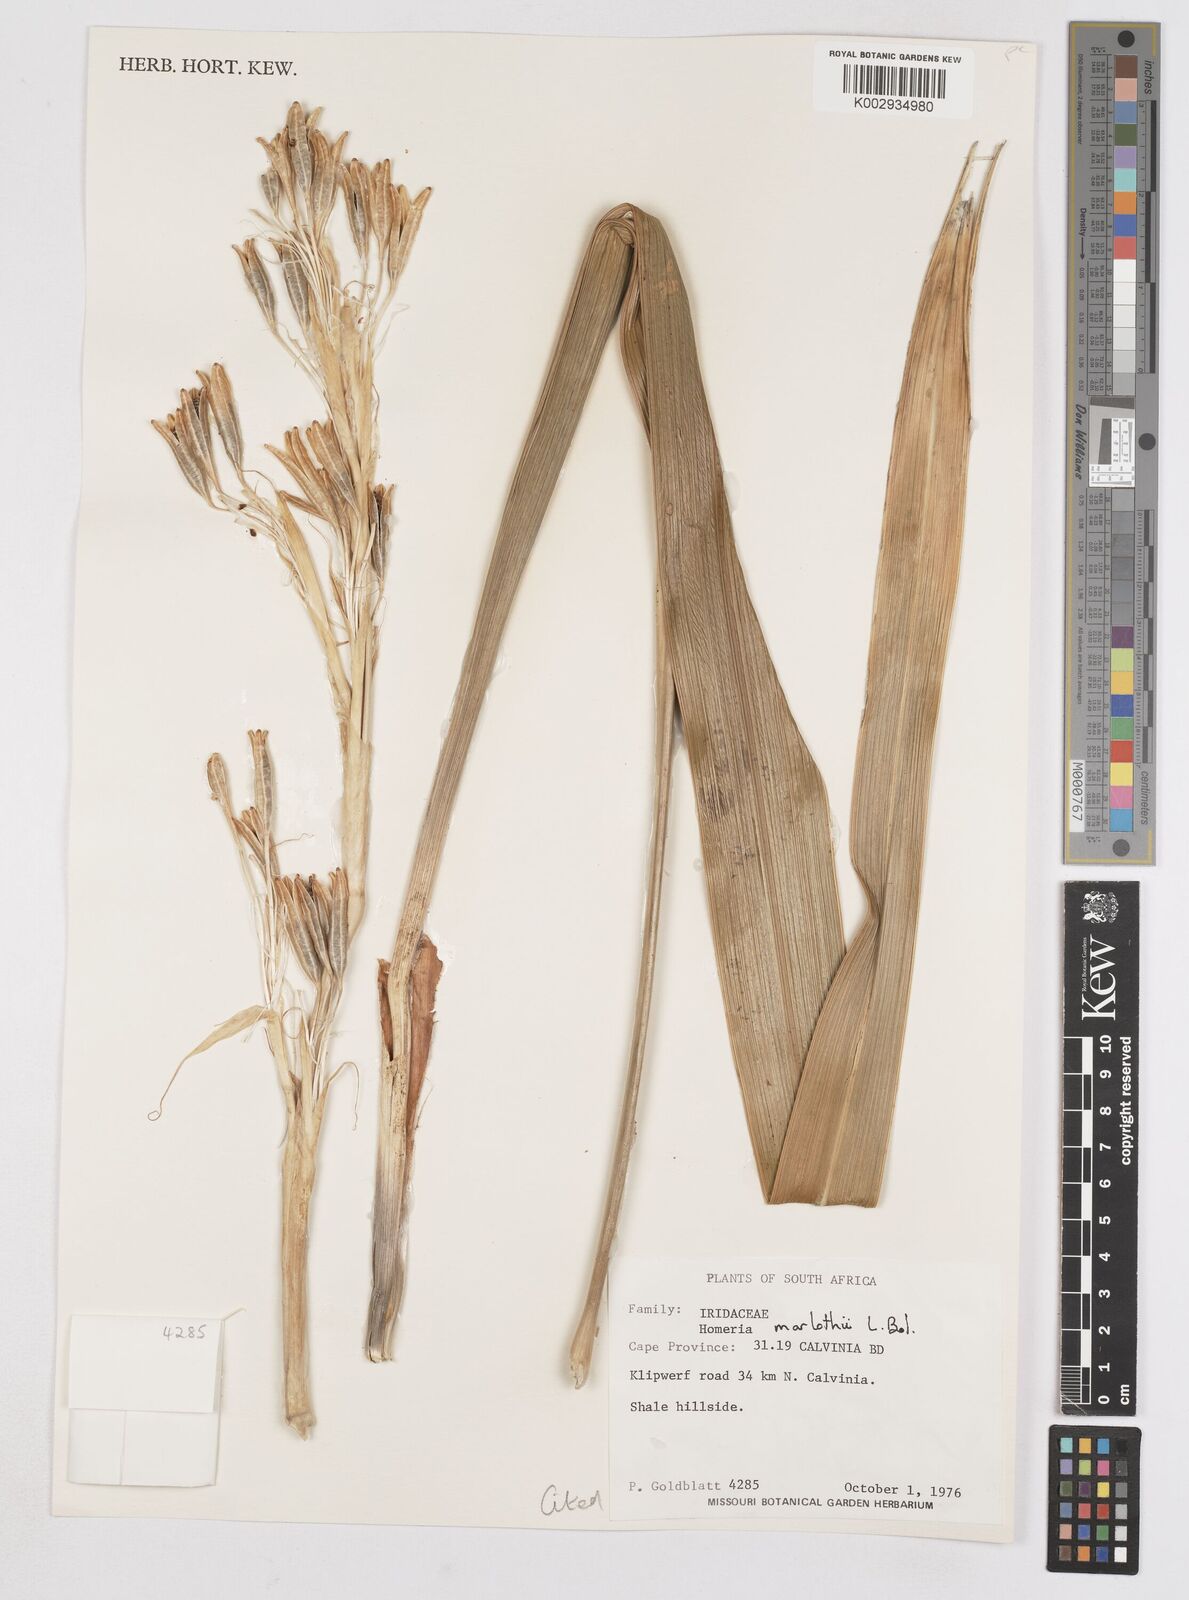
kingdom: Plantae
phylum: Tracheophyta
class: Liliopsida
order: Asparagales
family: Iridaceae
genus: Moraea
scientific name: Moraea marlothii
